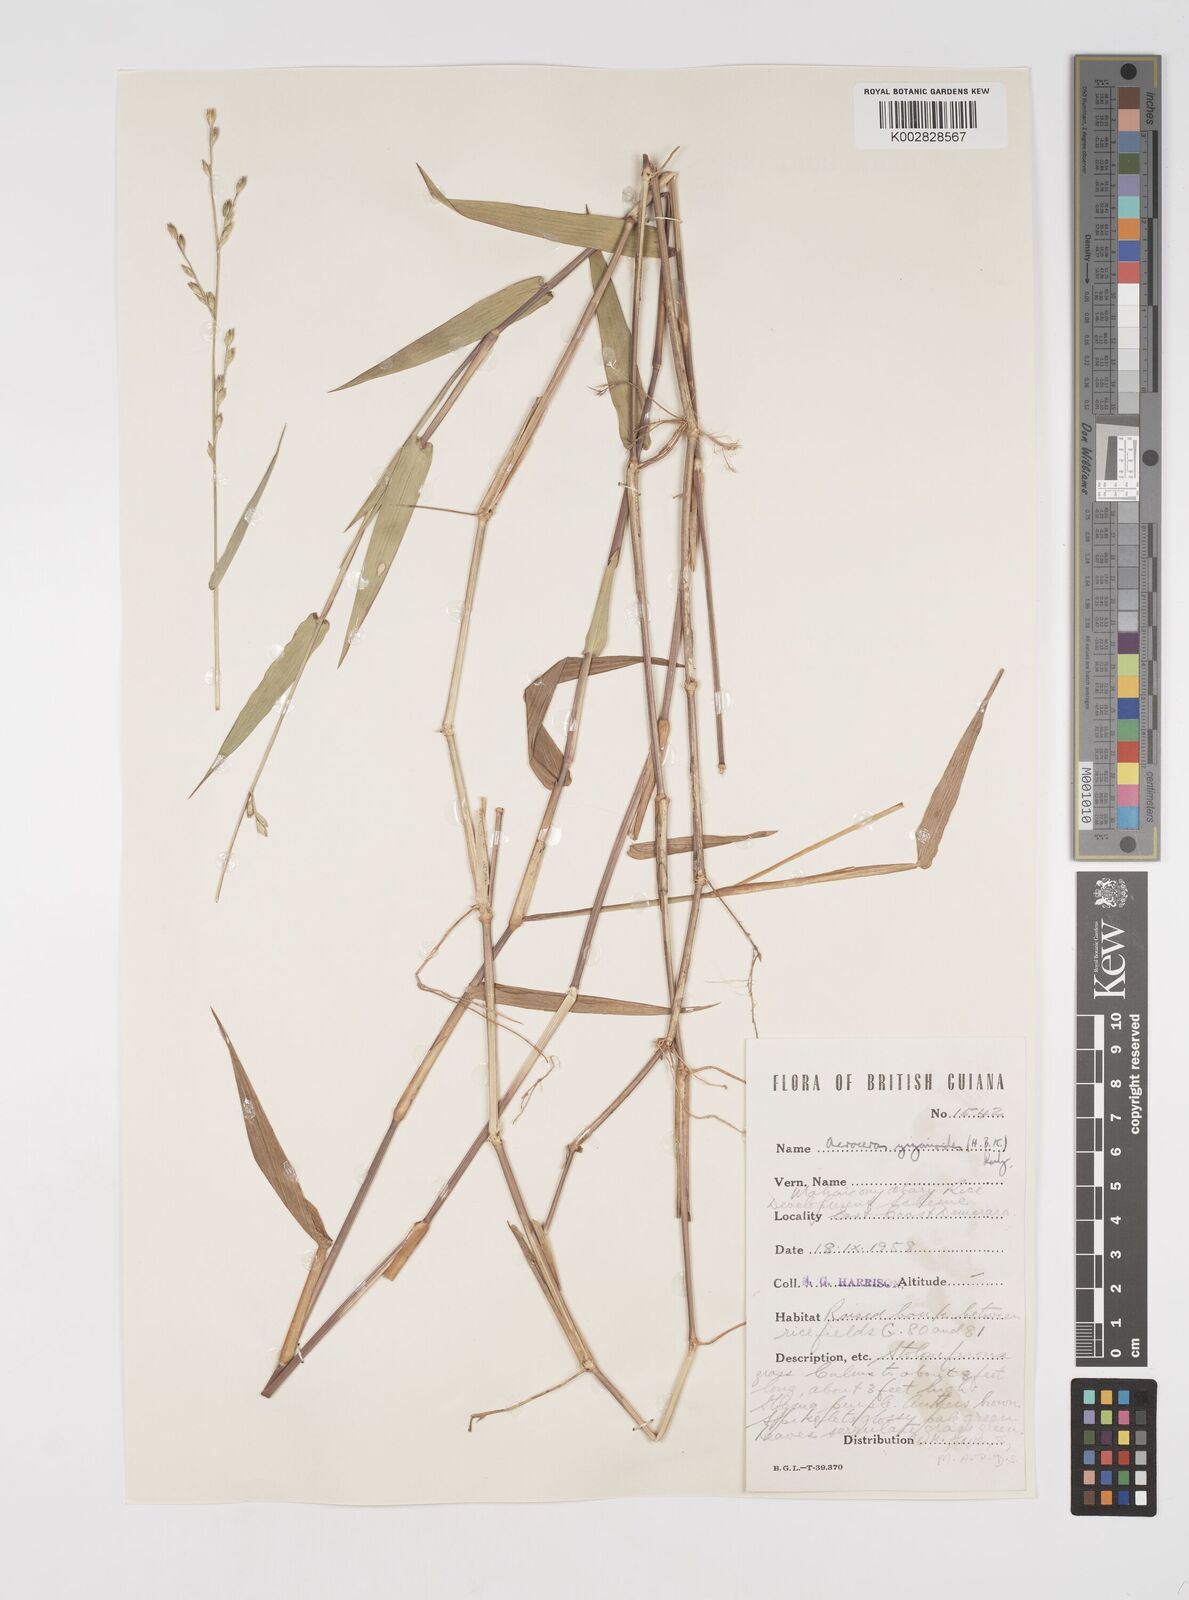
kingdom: Plantae
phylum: Tracheophyta
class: Liliopsida
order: Poales
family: Poaceae
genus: Acroceras
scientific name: Acroceras zizanioides
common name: Oat grass
